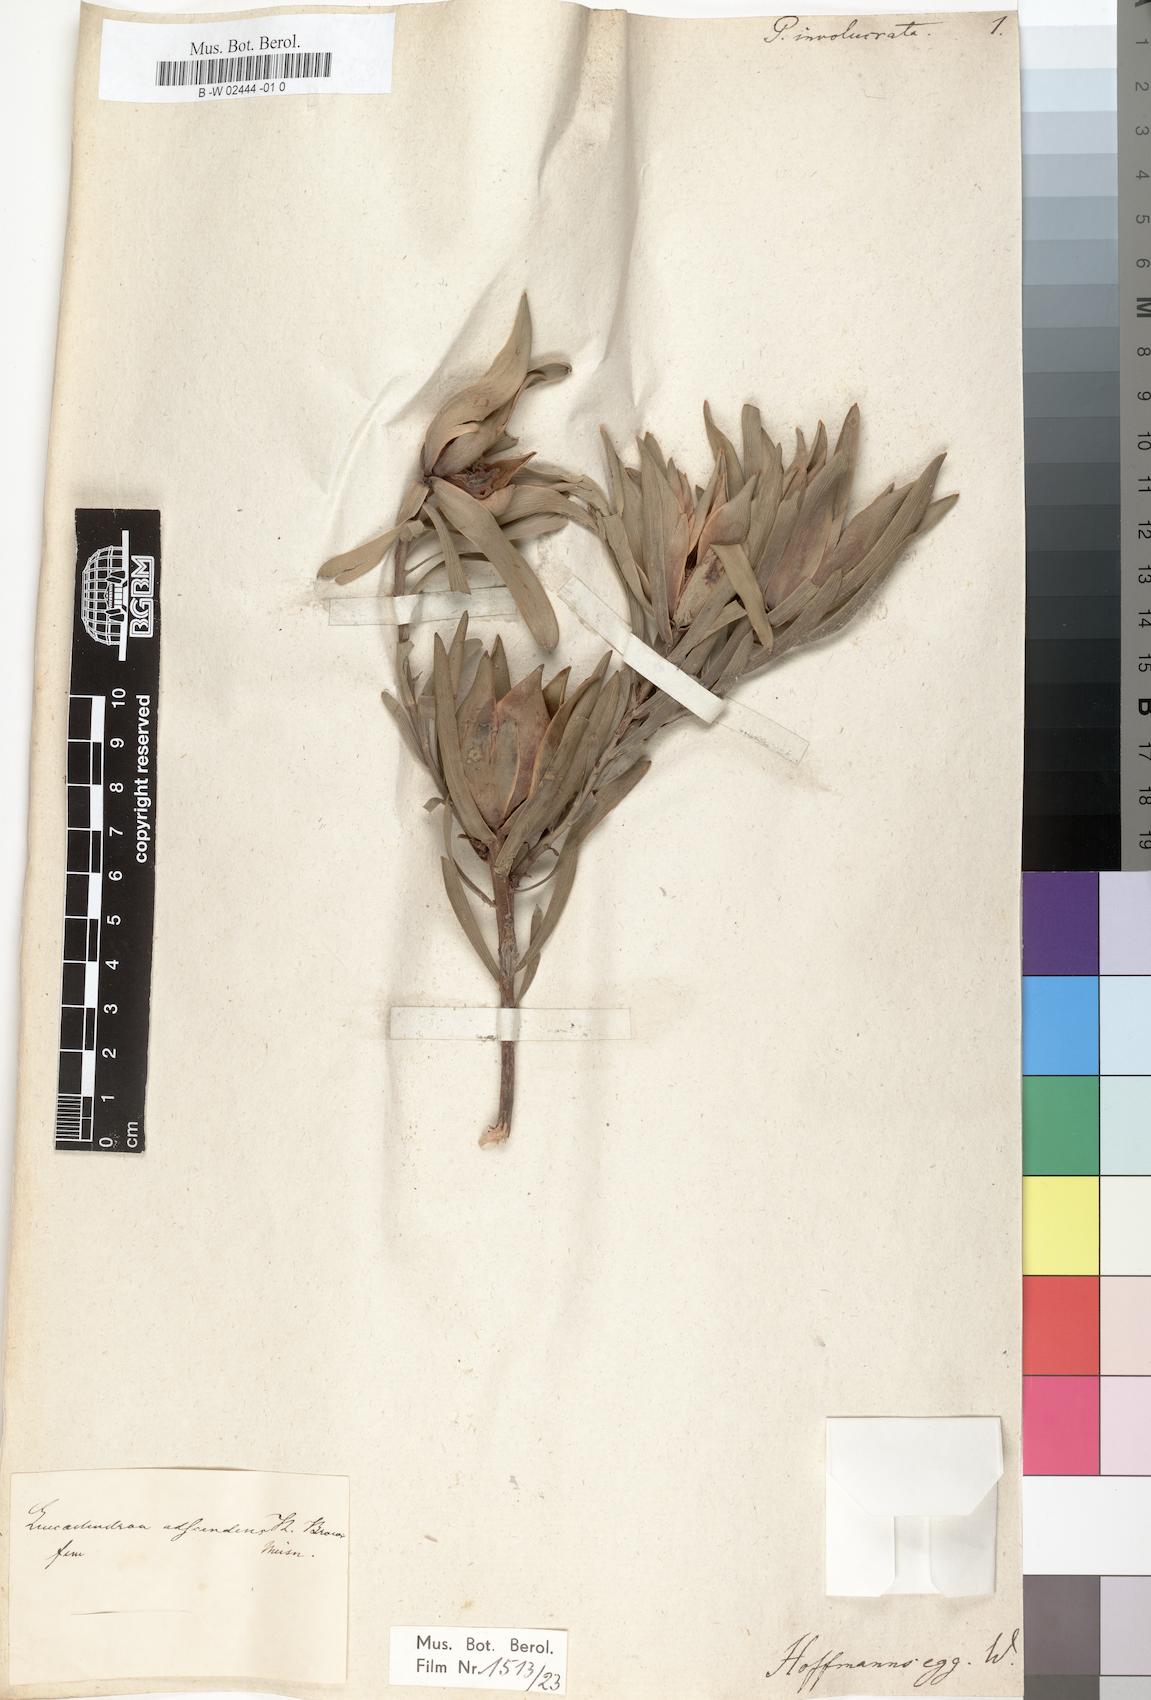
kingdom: Plantae
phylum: Tracheophyta
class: Magnoliopsida
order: Proteales
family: Proteaceae
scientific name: Proteaceae
